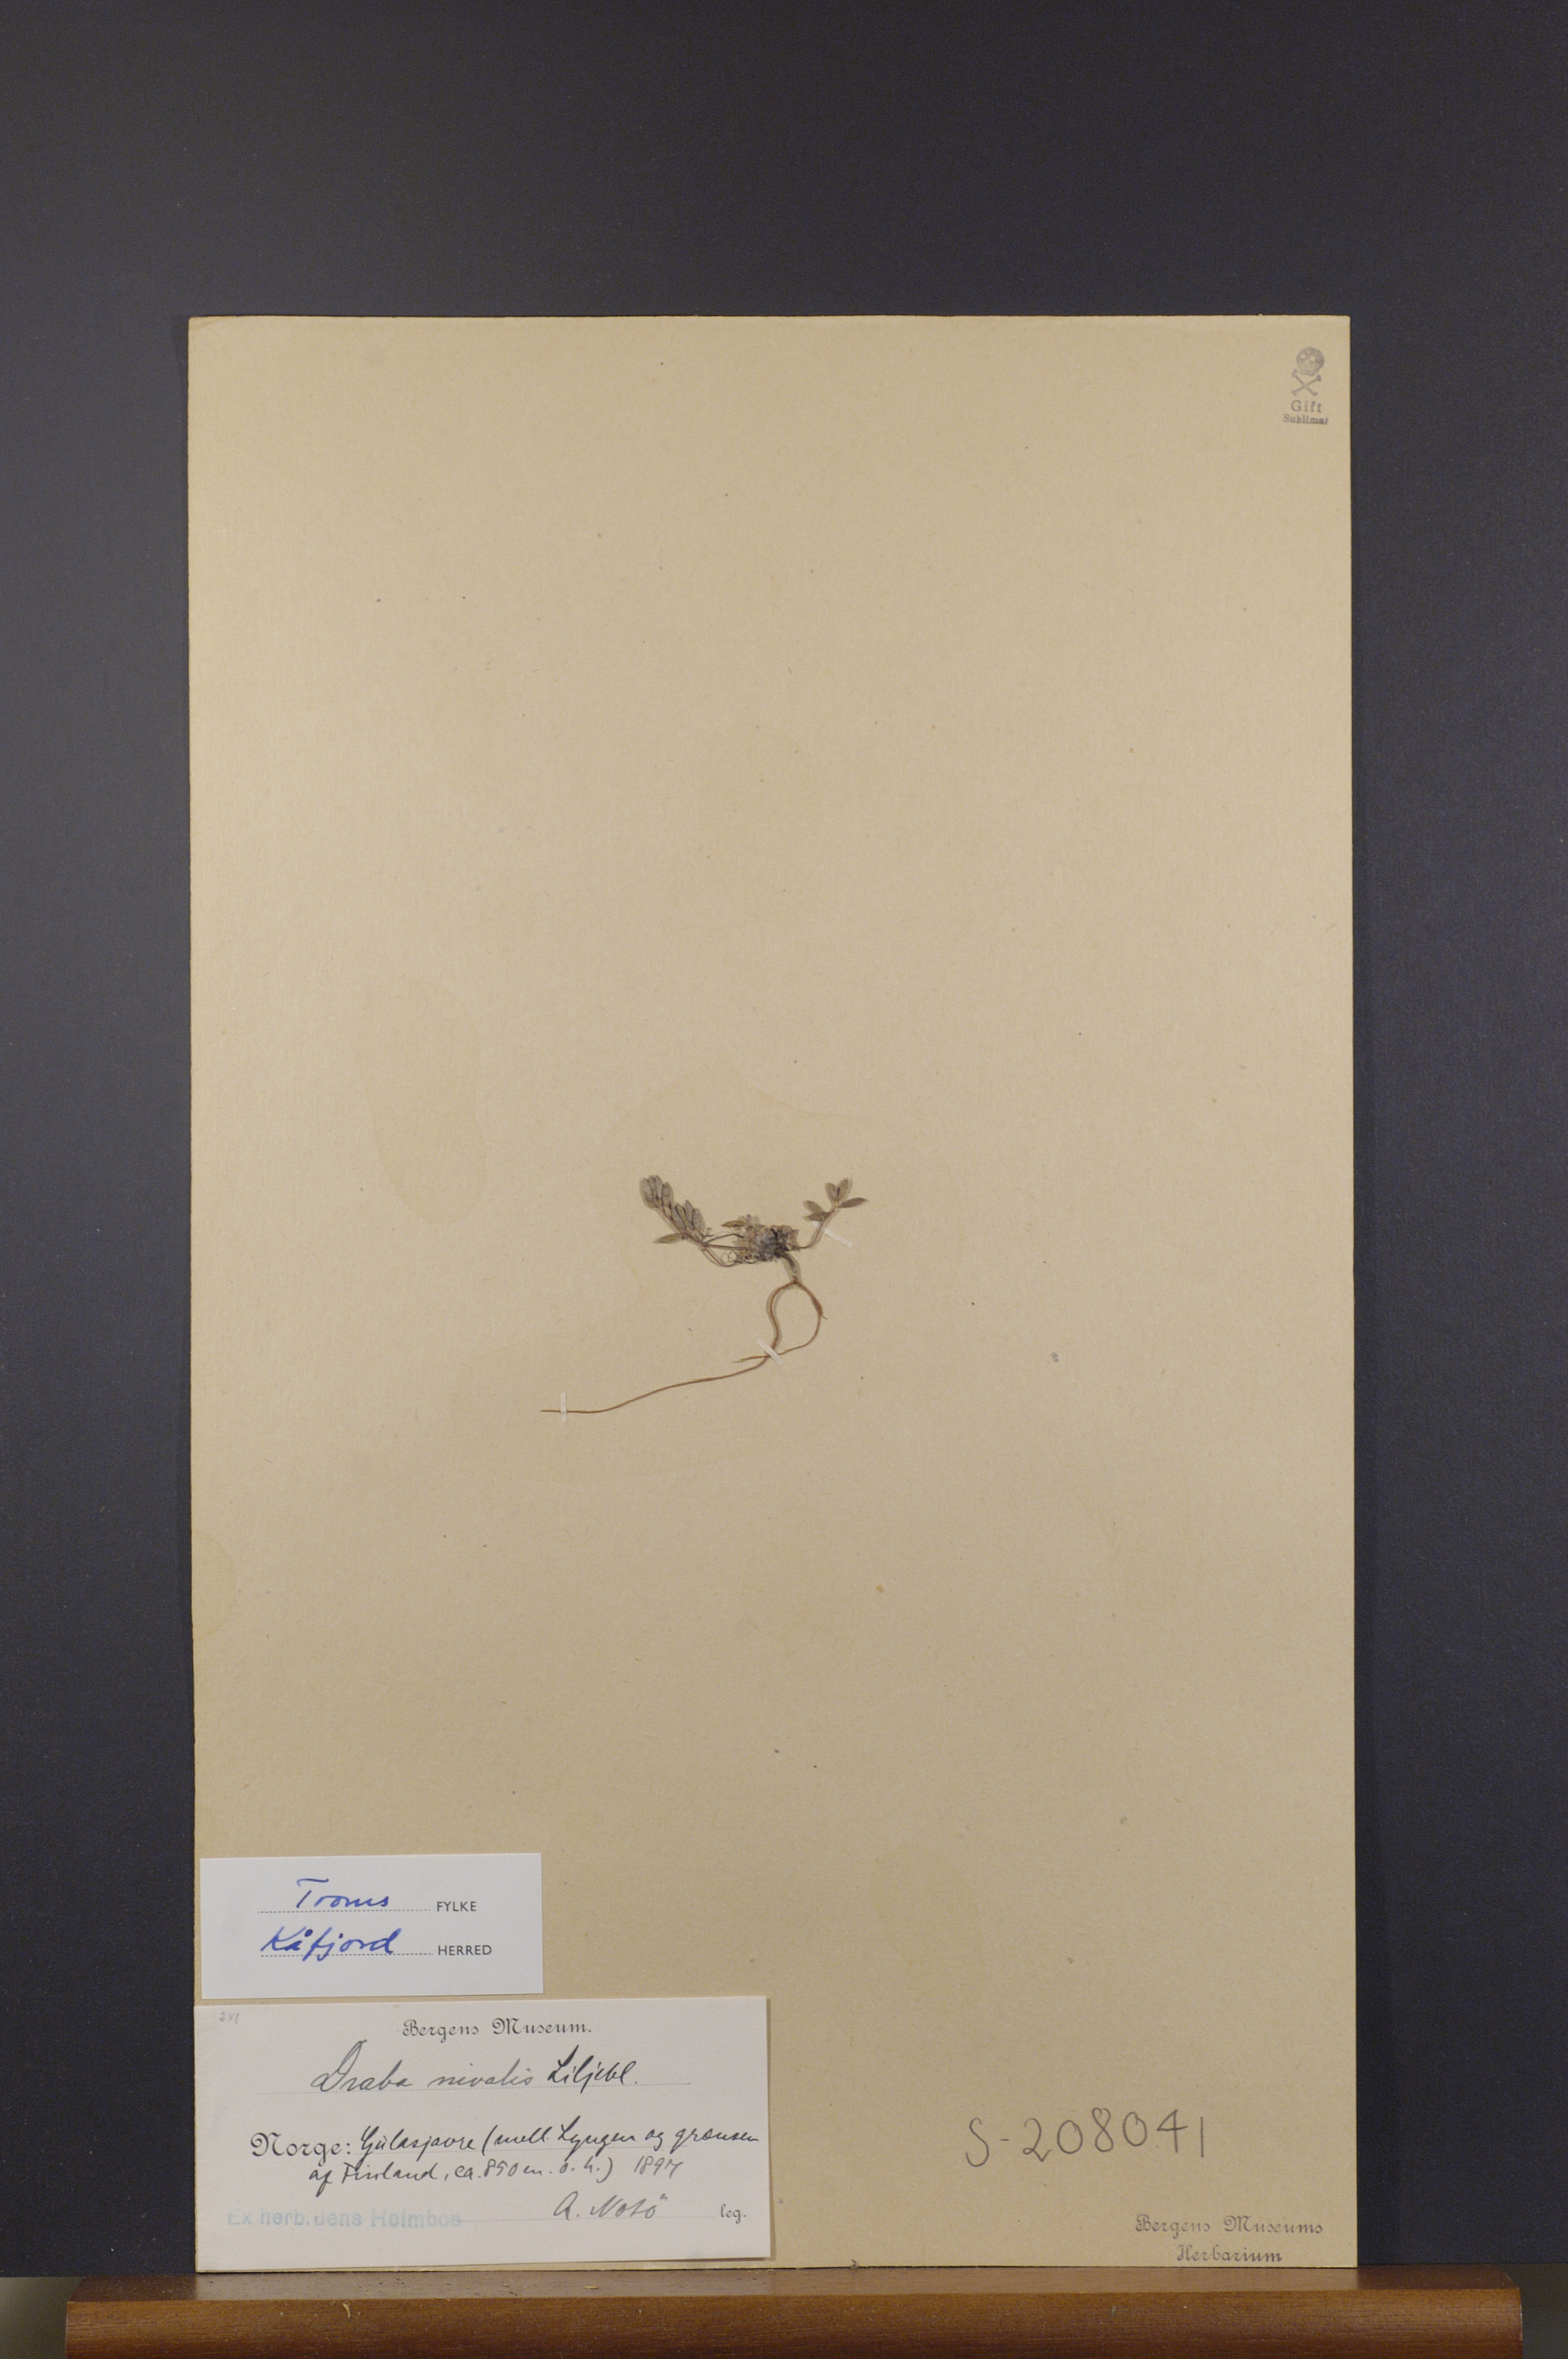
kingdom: Plantae
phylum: Tracheophyta
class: Magnoliopsida
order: Brassicales
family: Brassicaceae
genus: Draba
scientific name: Draba nivalis
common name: Snow draba
